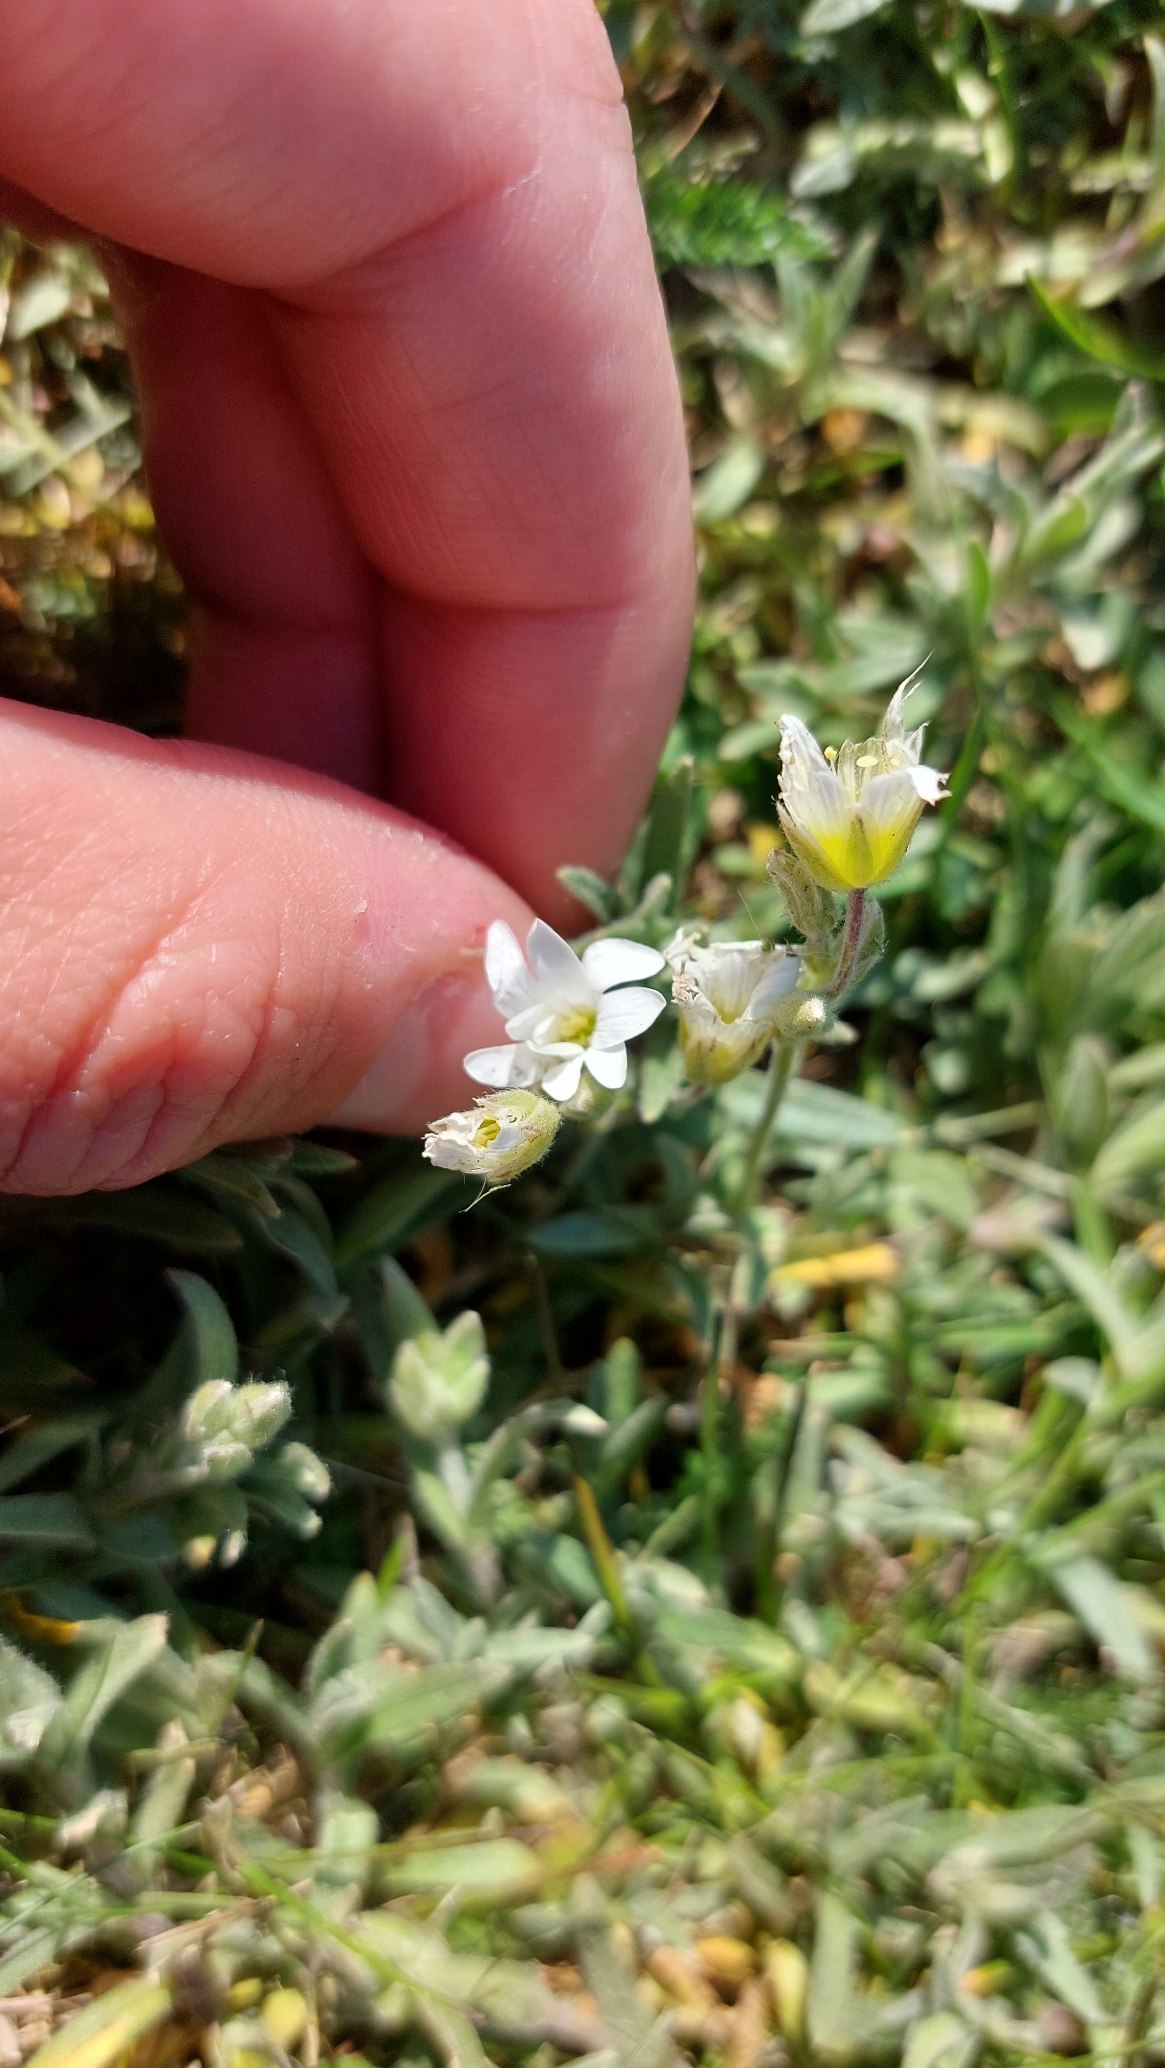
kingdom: Plantae
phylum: Tracheophyta
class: Magnoliopsida
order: Caryophyllales
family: Caryophyllaceae
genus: Cerastium
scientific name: Cerastium tomentosum
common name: Filtet hønsetarm
